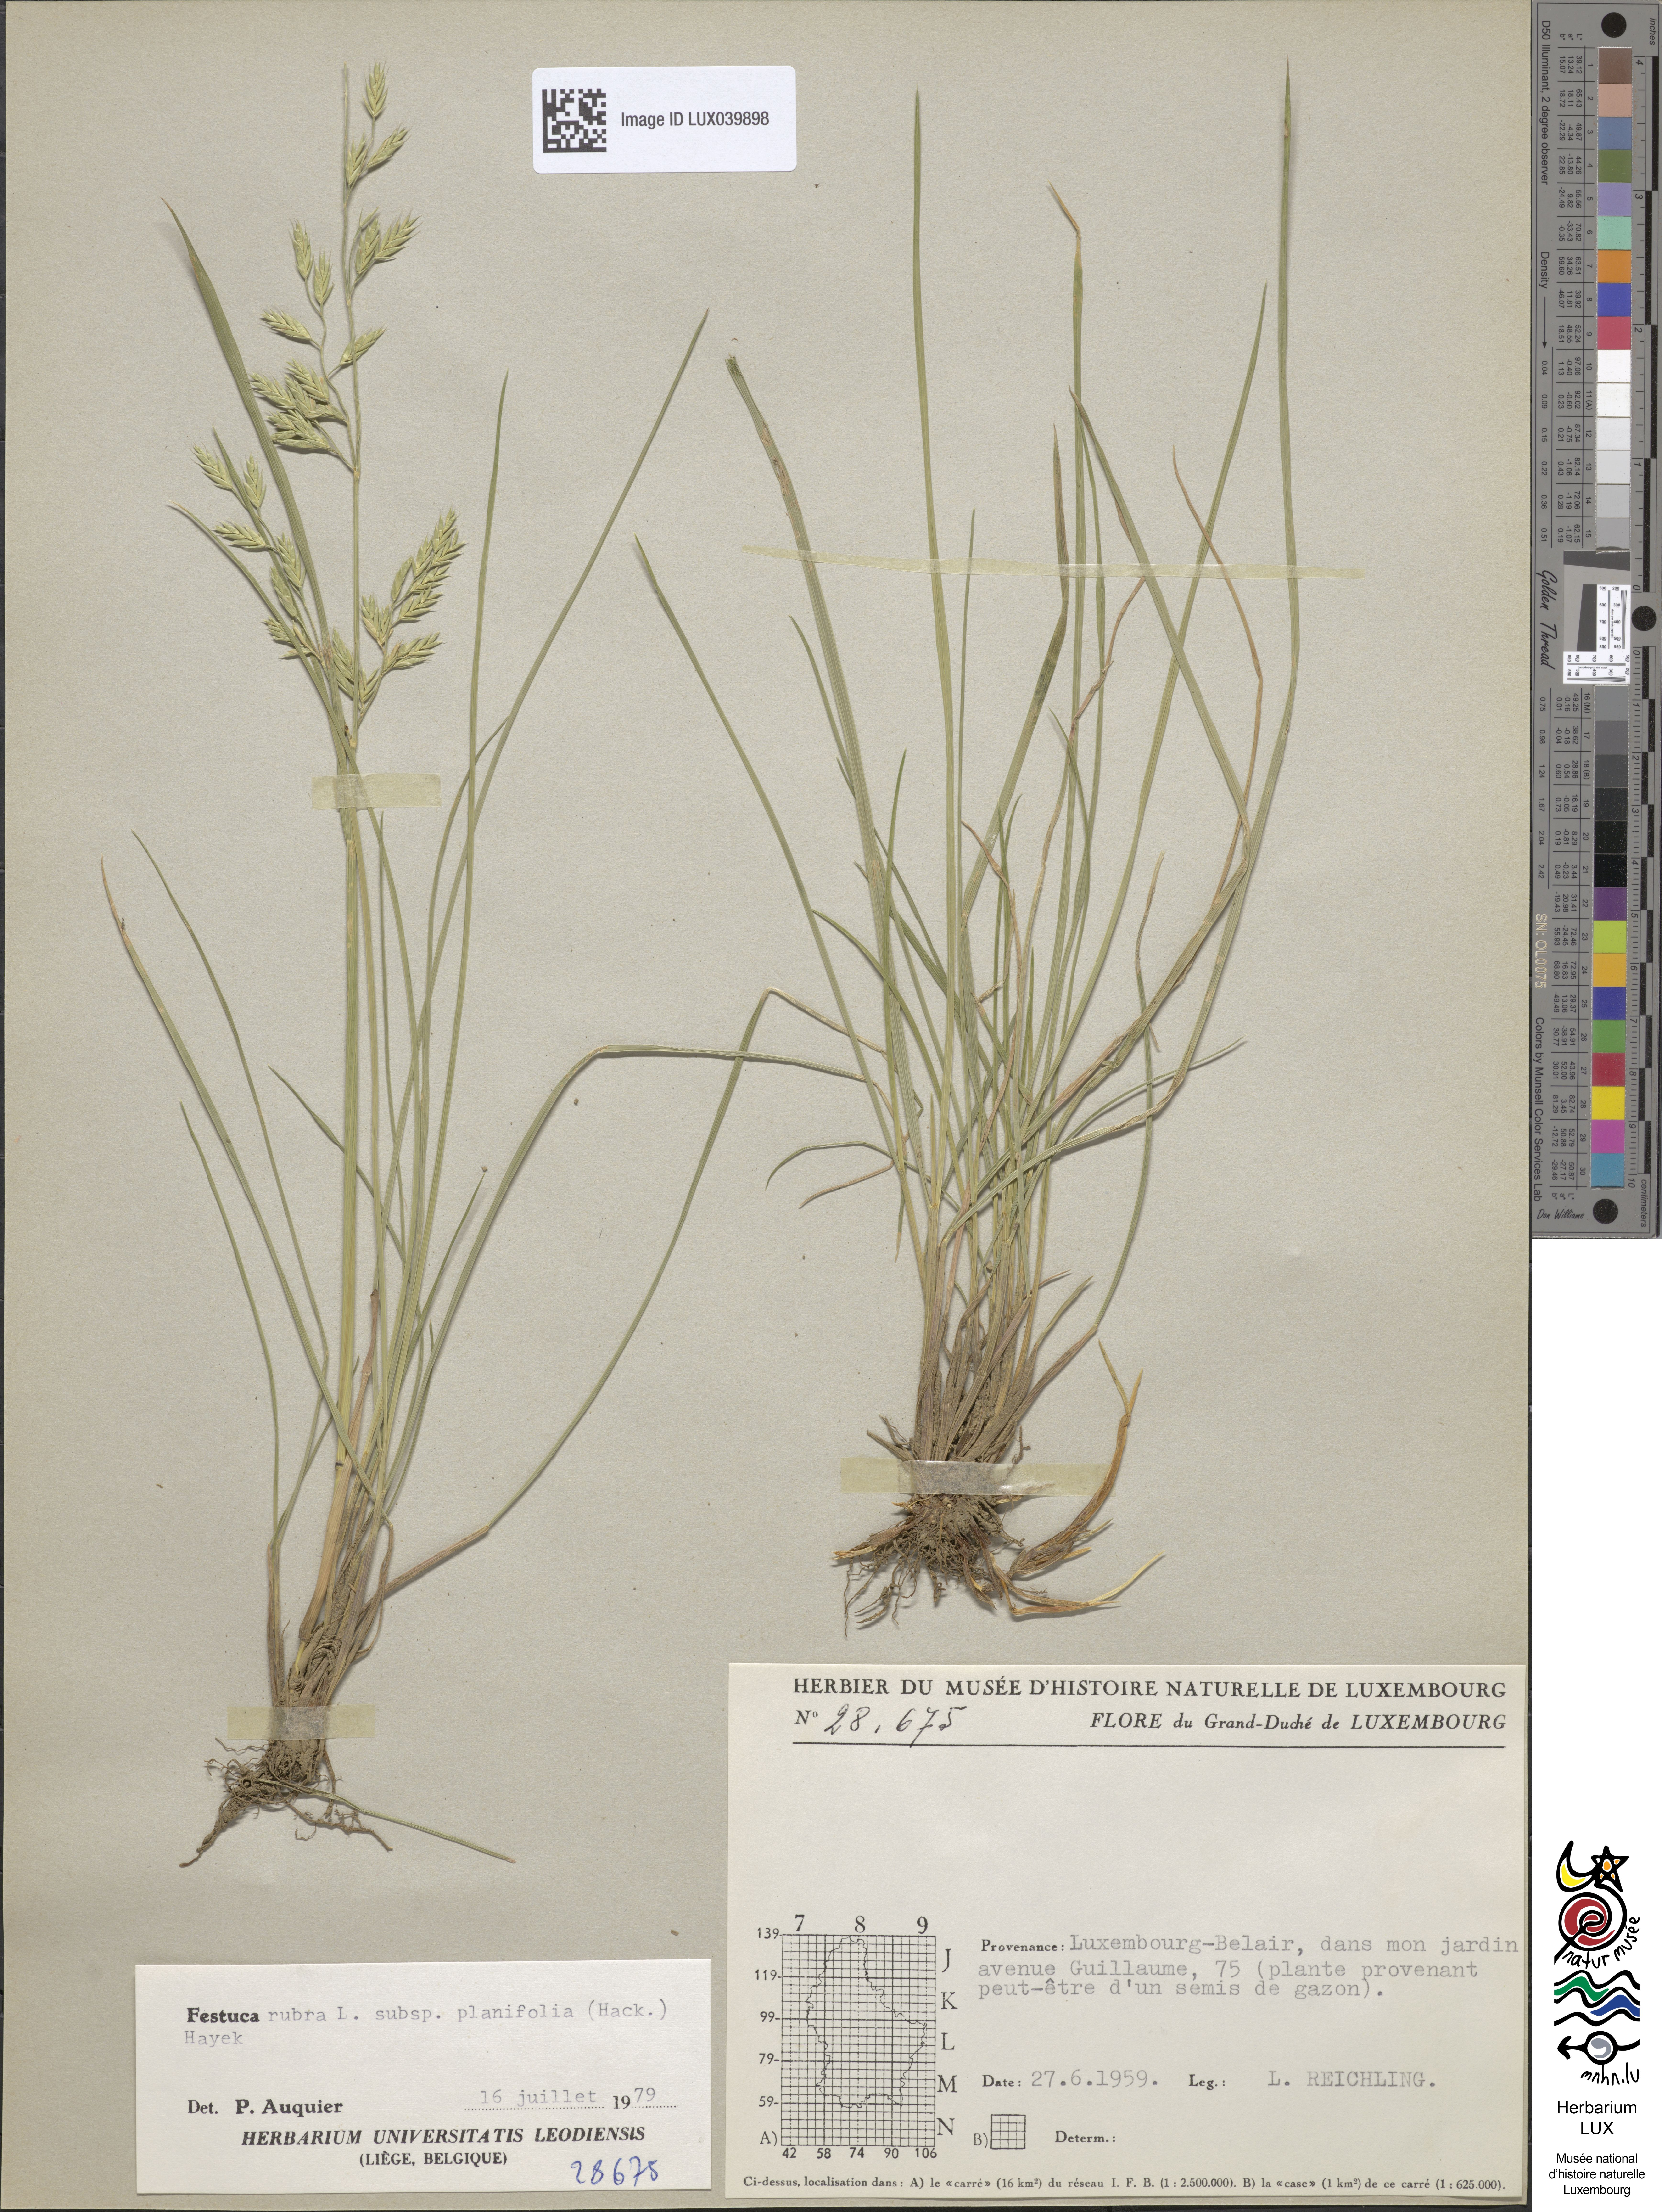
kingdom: Plantae
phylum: Tracheophyta
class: Liliopsida
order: Poales
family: Poaceae
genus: Festuca
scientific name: Festuca heteromalla
